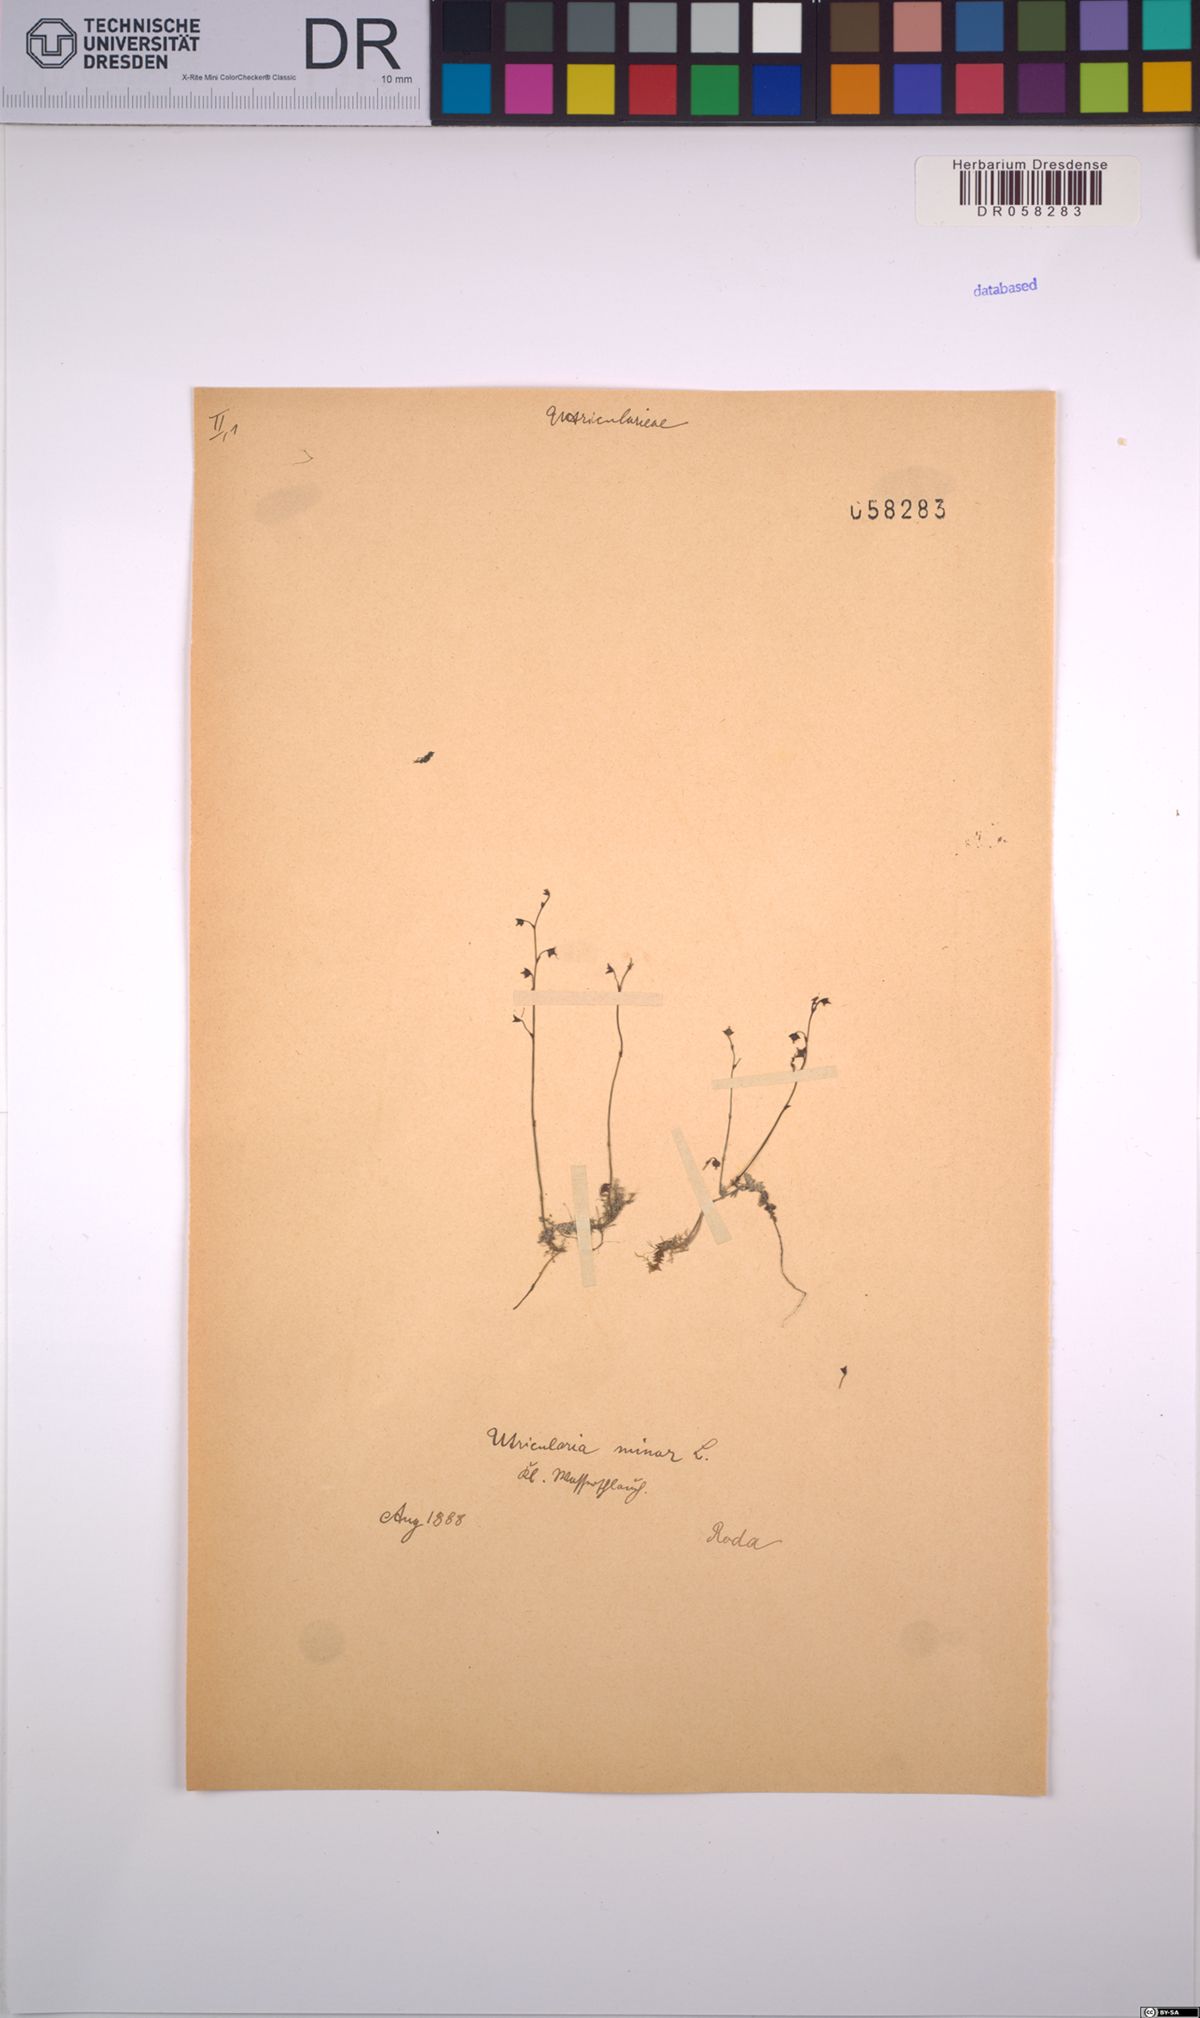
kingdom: Plantae
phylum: Tracheophyta
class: Magnoliopsida
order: Lamiales
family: Lentibulariaceae
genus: Utricularia
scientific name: Utricularia minor
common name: Lesser bladderwort
